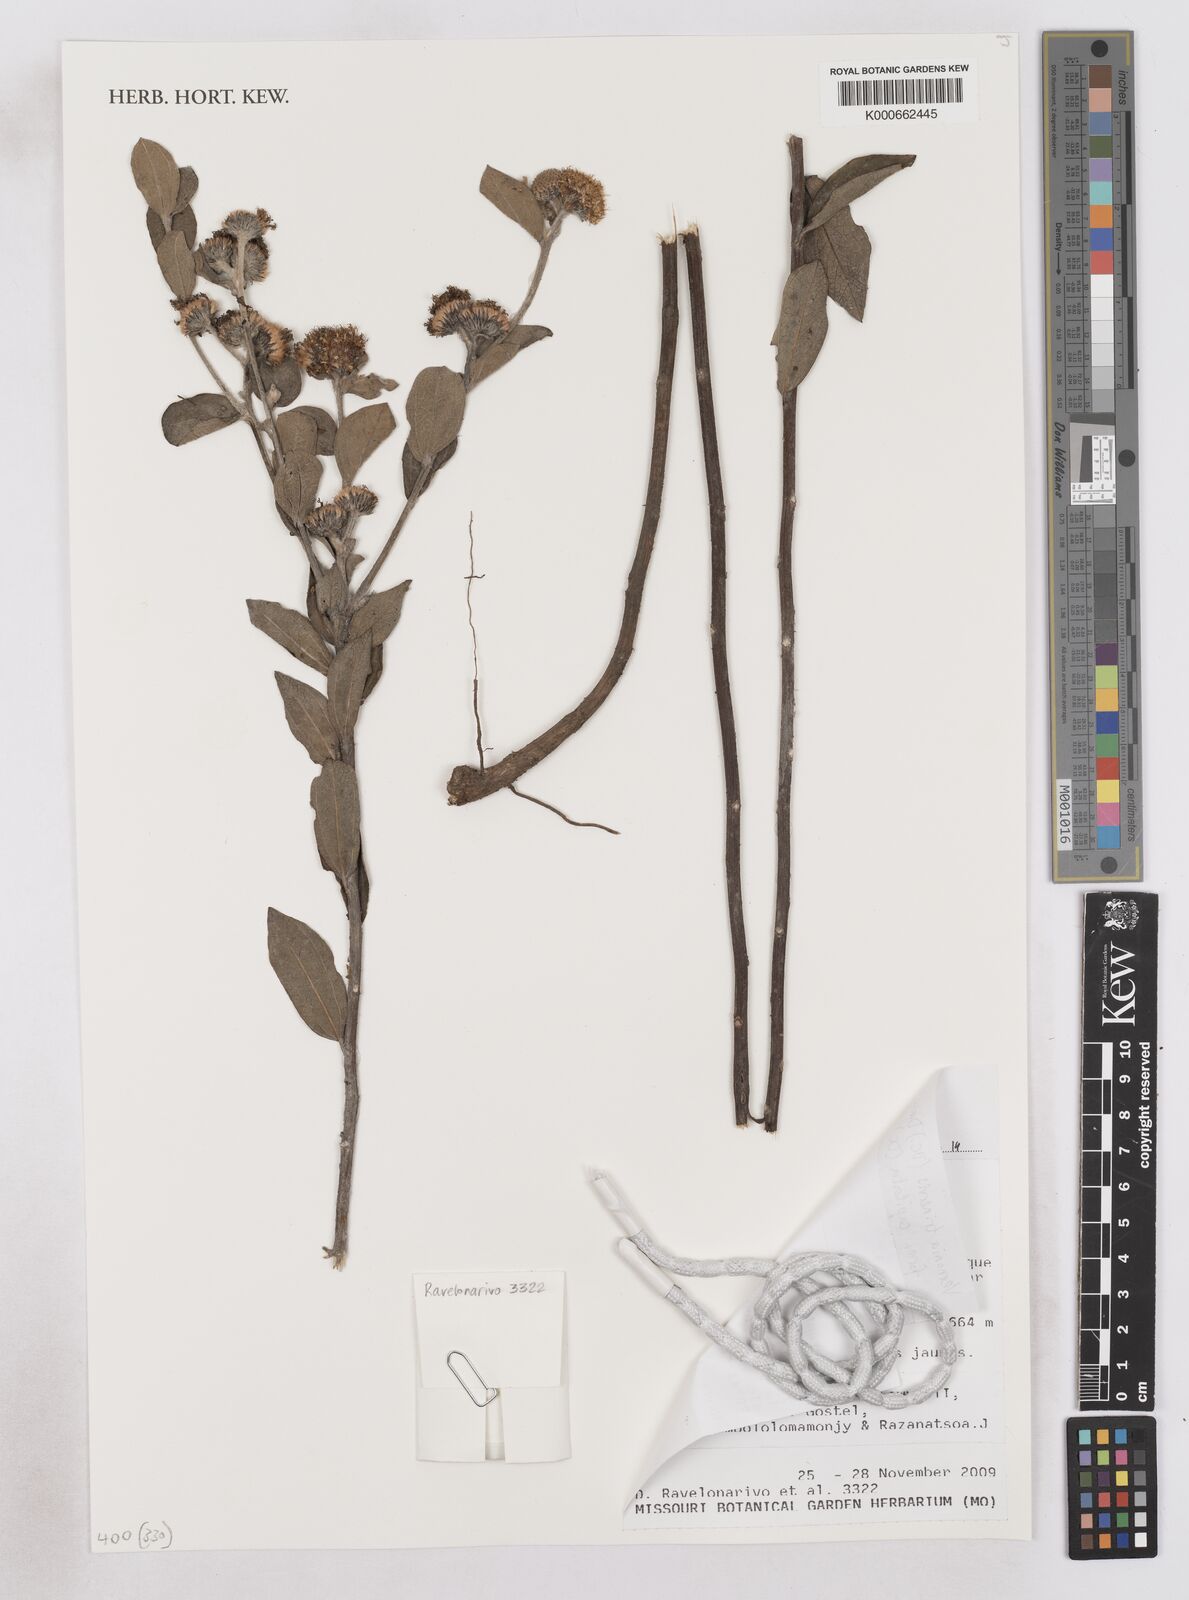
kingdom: Plantae
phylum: Tracheophyta
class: Magnoliopsida
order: Asterales
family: Asteraceae
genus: Distephanus
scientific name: Distephanus trinervis
